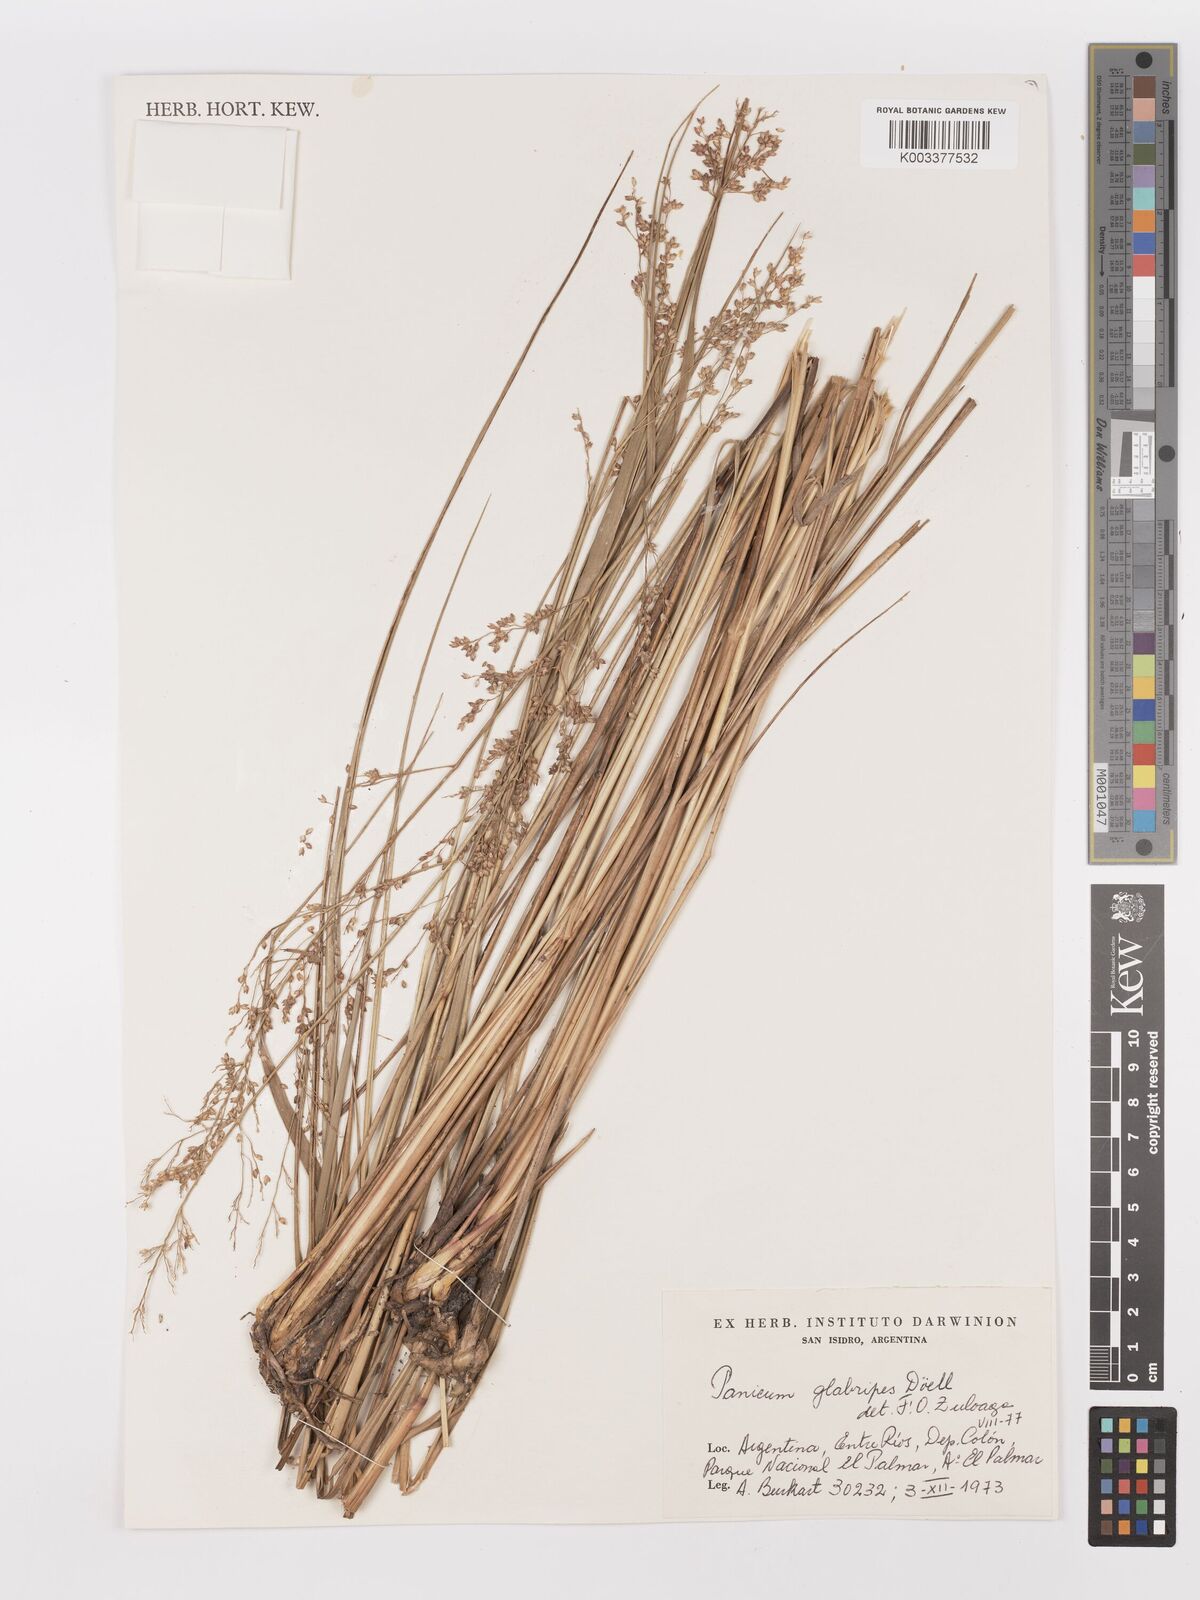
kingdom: Plantae
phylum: Tracheophyta
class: Liliopsida
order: Poales
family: Poaceae
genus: Panicum
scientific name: Panicum glabripes
